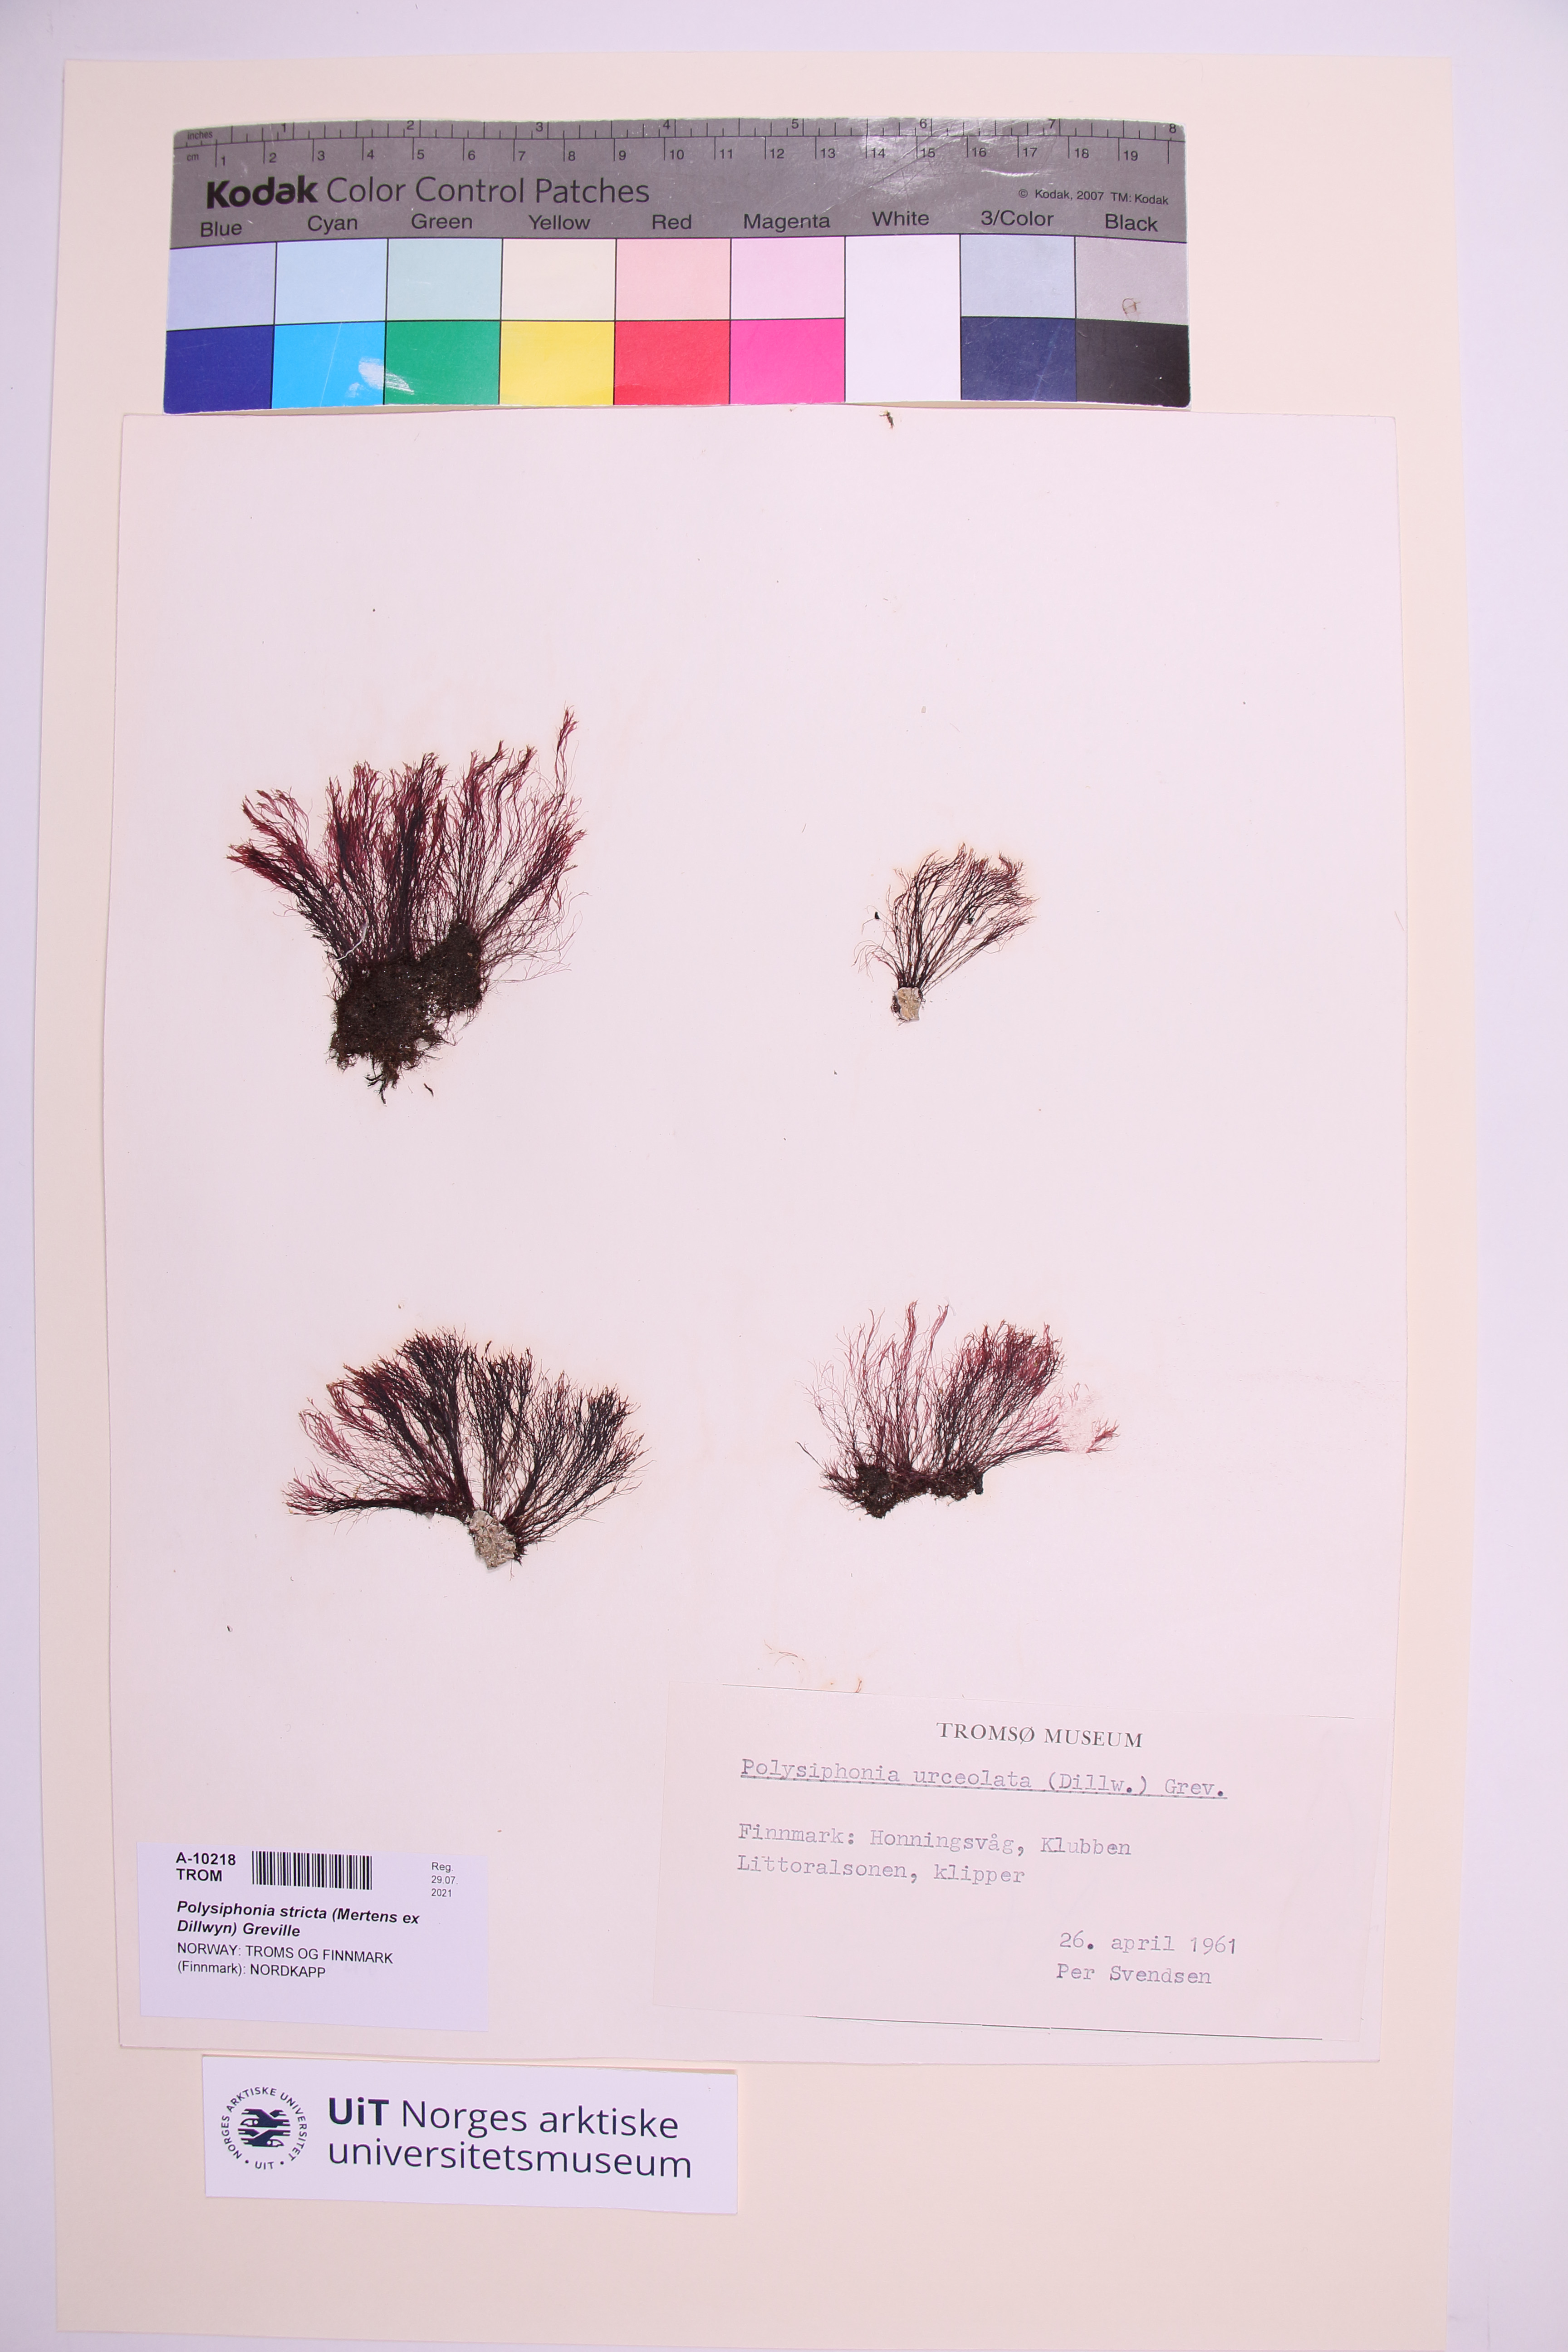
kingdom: Plantae
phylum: Rhodophyta
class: Florideophyceae
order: Ceramiales
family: Rhodomelaceae
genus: Polysiphonia
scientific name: Polysiphonia stricta
